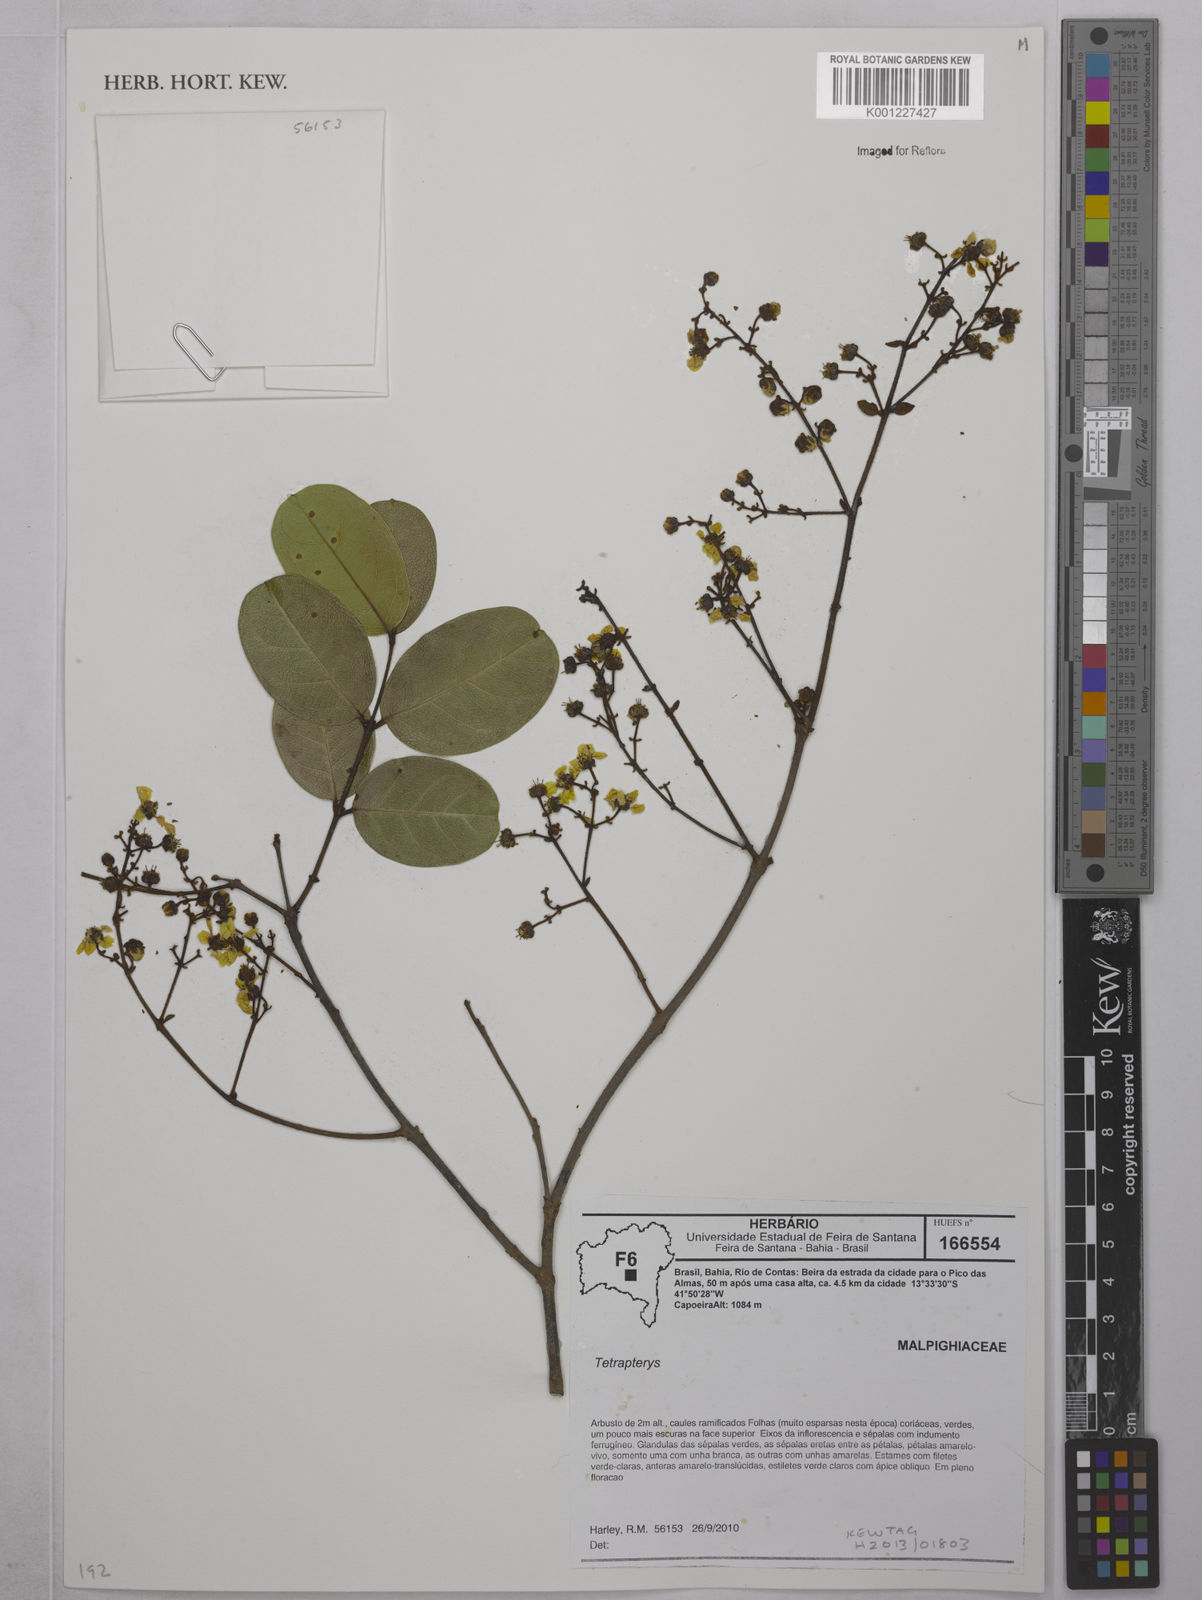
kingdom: Plantae
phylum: Tracheophyta
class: Magnoliopsida
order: Malpighiales
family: Malpighiaceae
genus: Tetrapterys
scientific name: Tetrapterys
